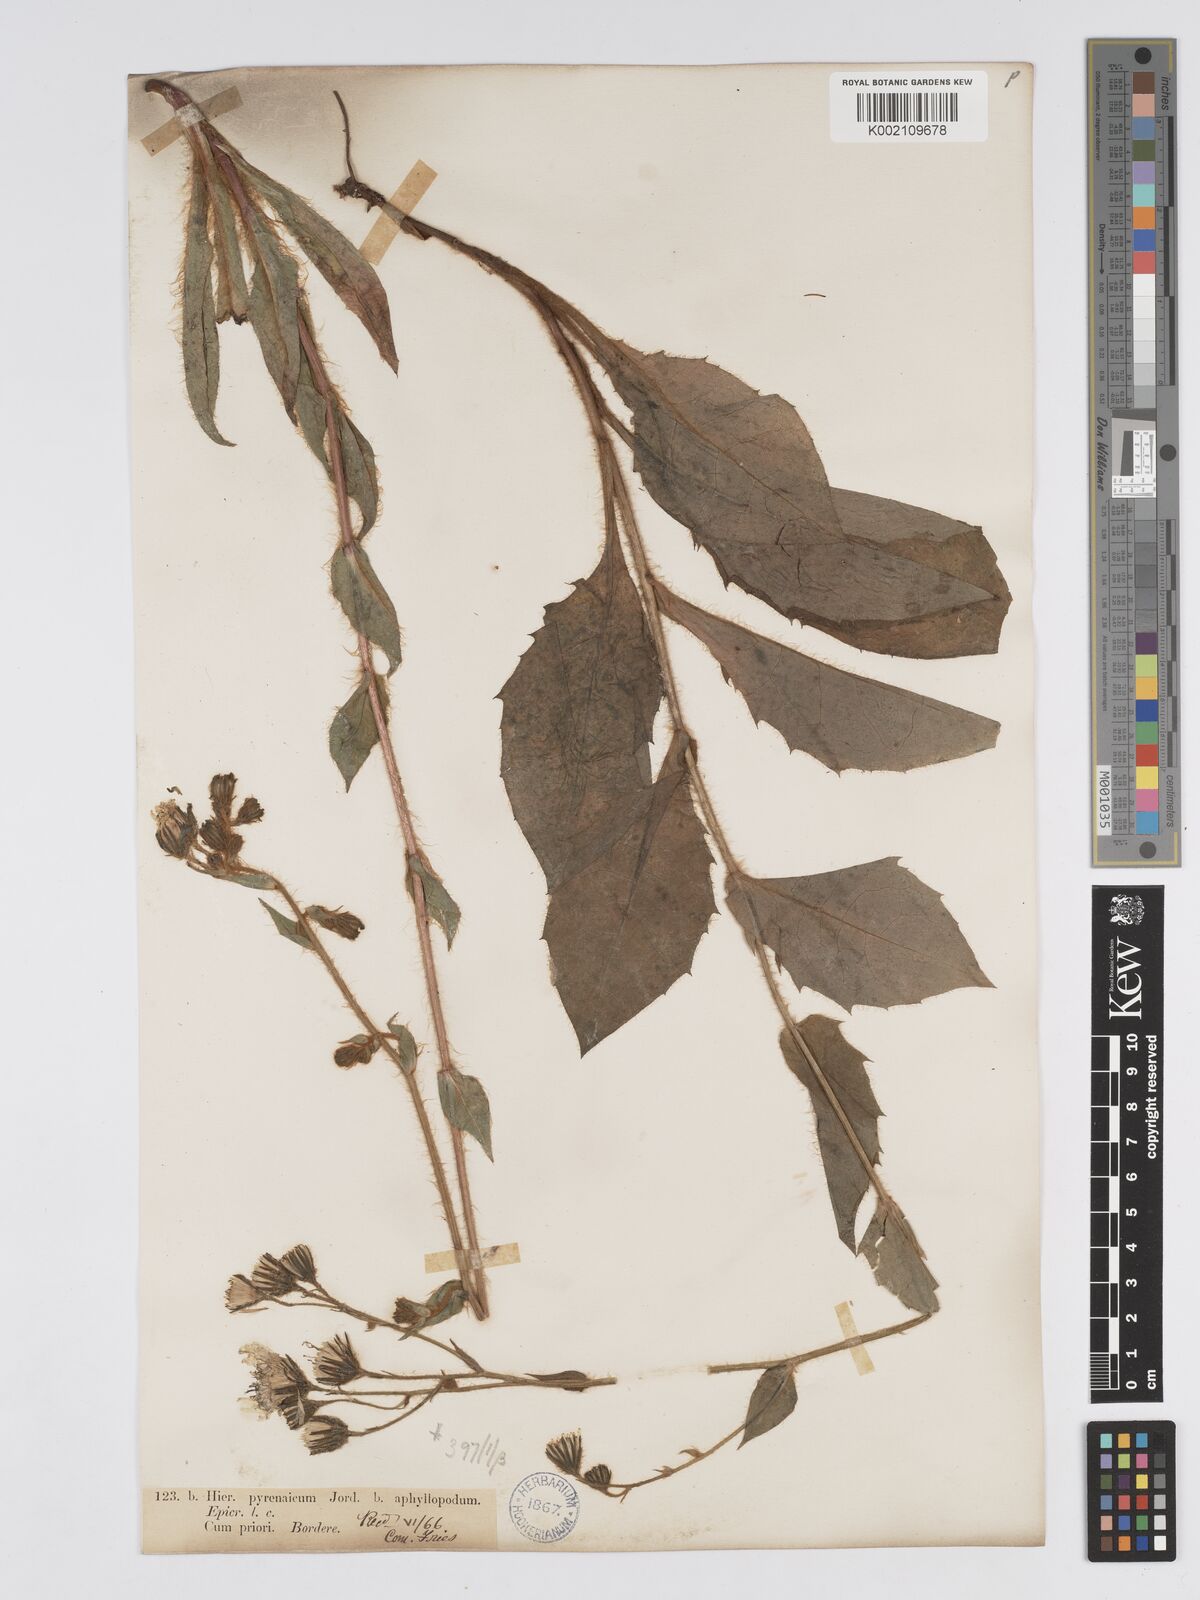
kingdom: Plantae
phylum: Tracheophyta
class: Magnoliopsida
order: Asterales
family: Asteraceae
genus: Hieracium
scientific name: Hieracium nobile
